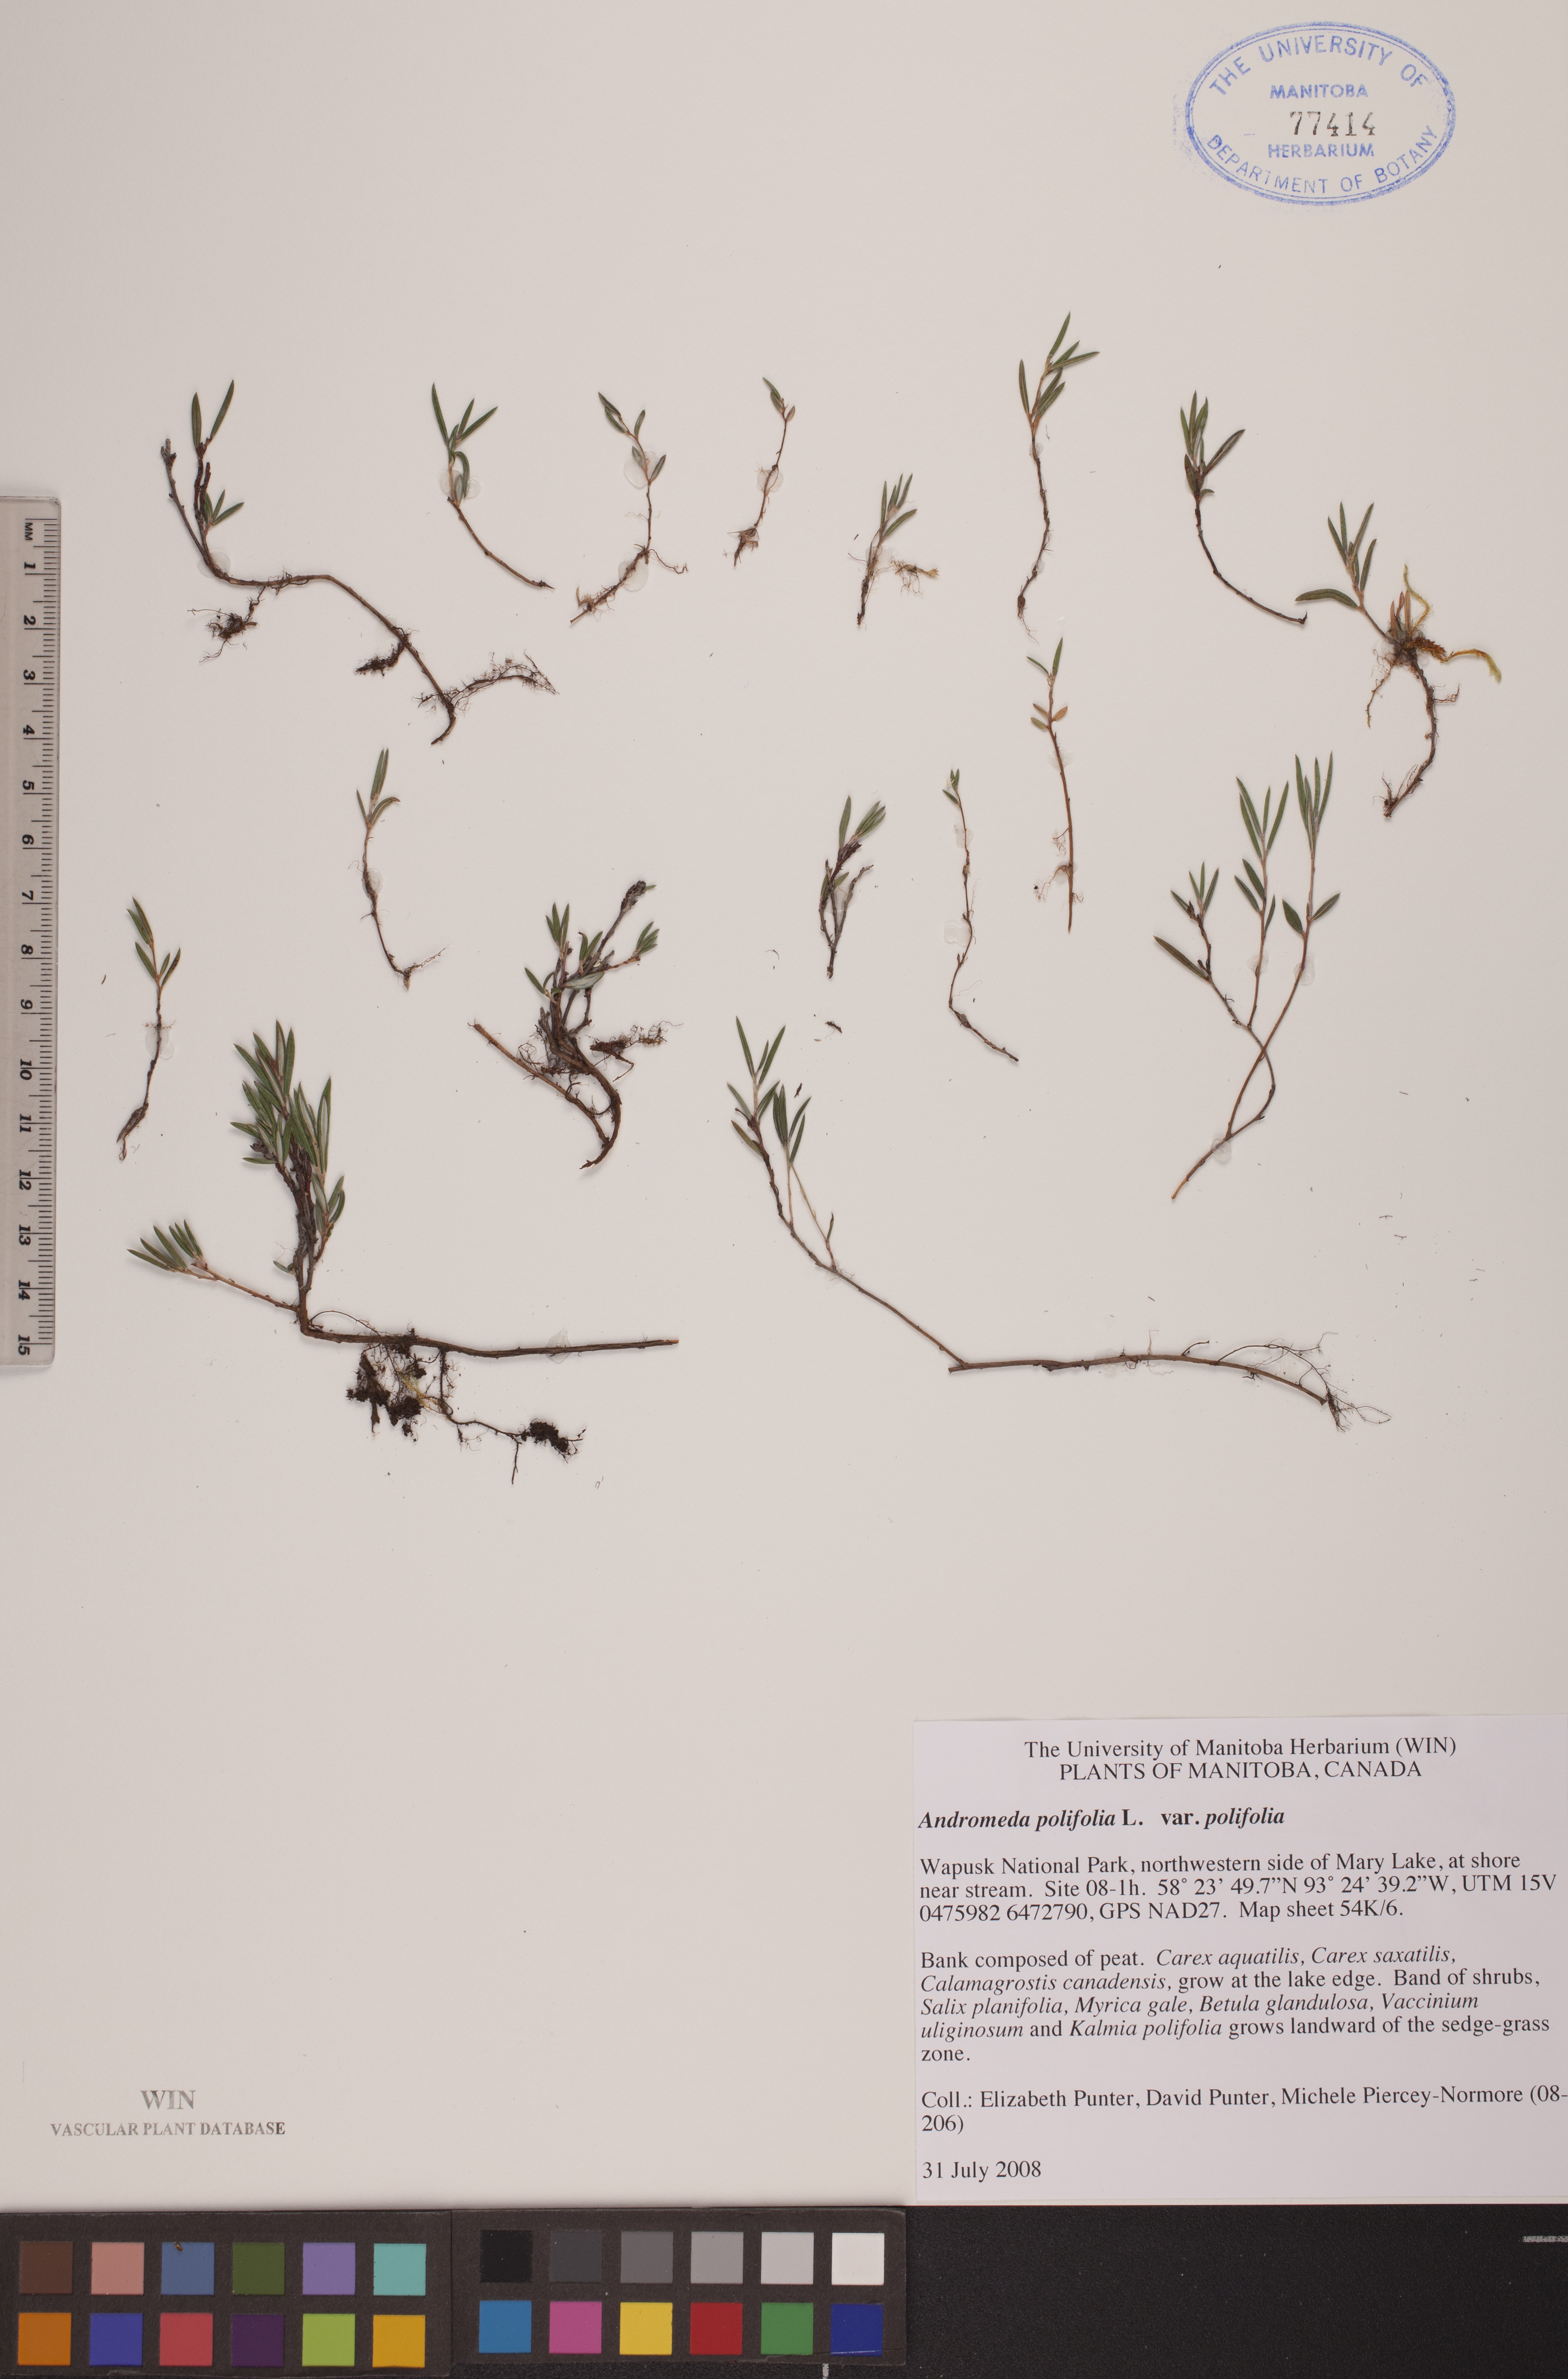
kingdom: Plantae
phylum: Tracheophyta
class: Magnoliopsida
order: Ericales
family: Ericaceae
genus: Andromeda
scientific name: Andromeda polifolia
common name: Bog-rosemary
